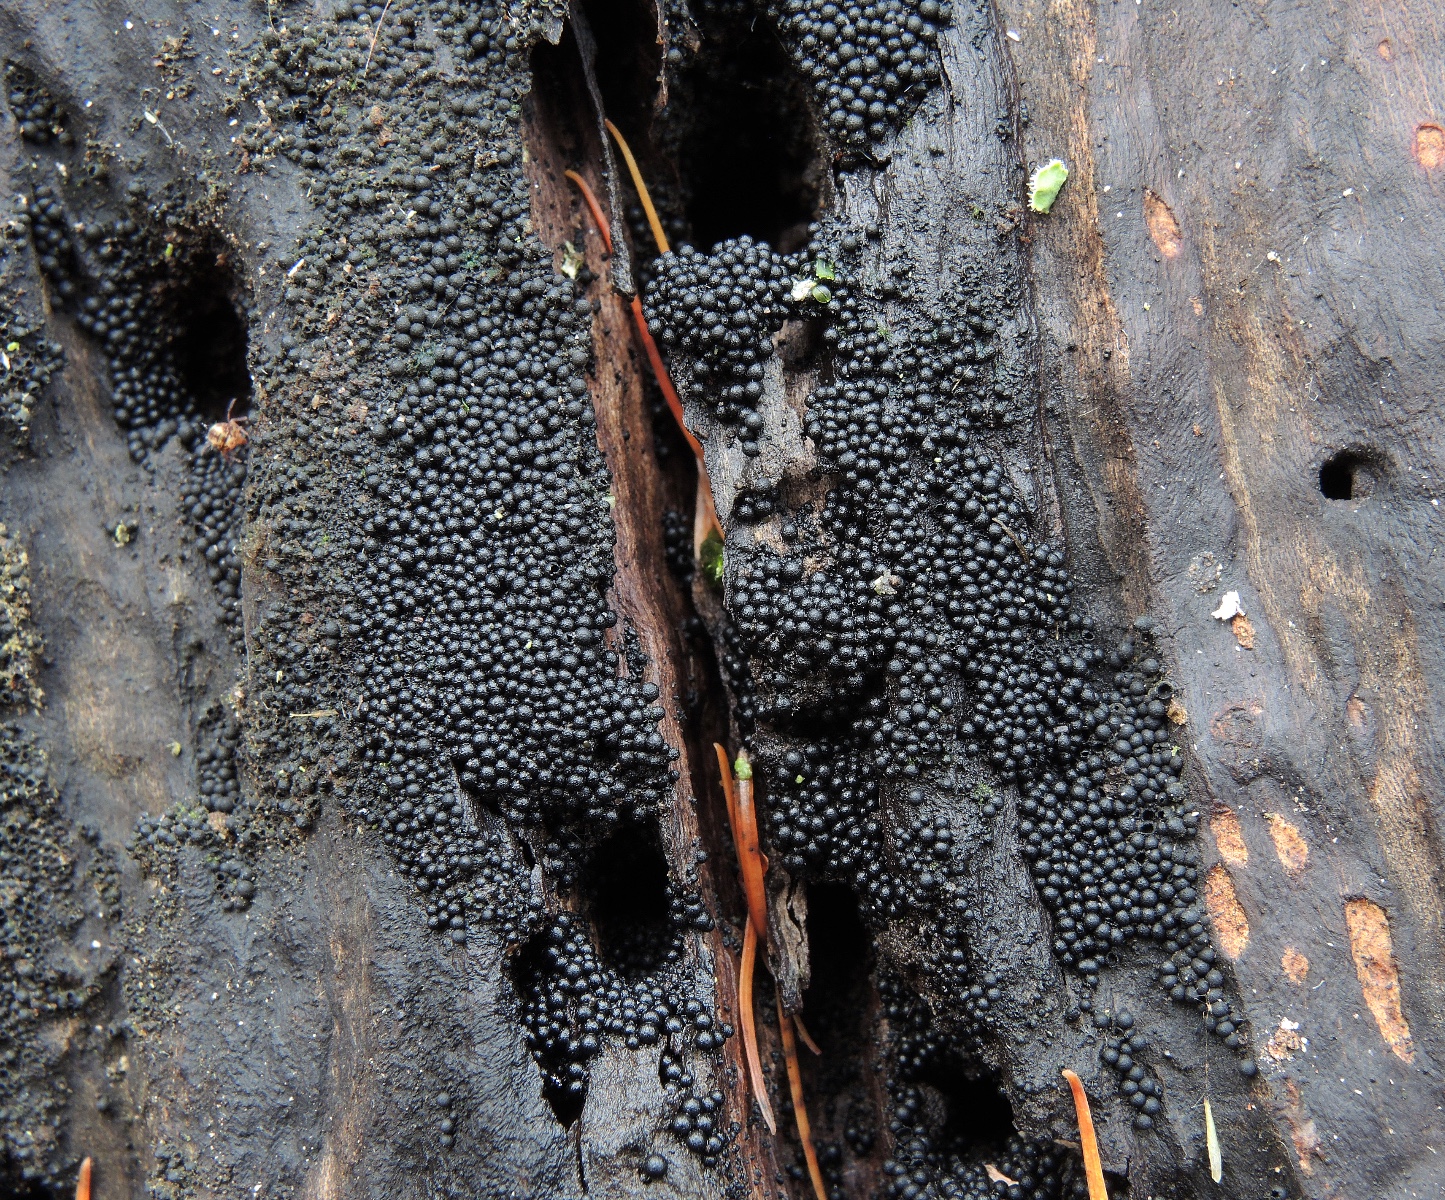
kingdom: Fungi
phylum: Ascomycota
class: Sordariomycetes
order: Sordariales
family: Helminthosphaeriaceae
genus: Ruzenia
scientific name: Ruzenia spermoides
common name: glat børstekerne
